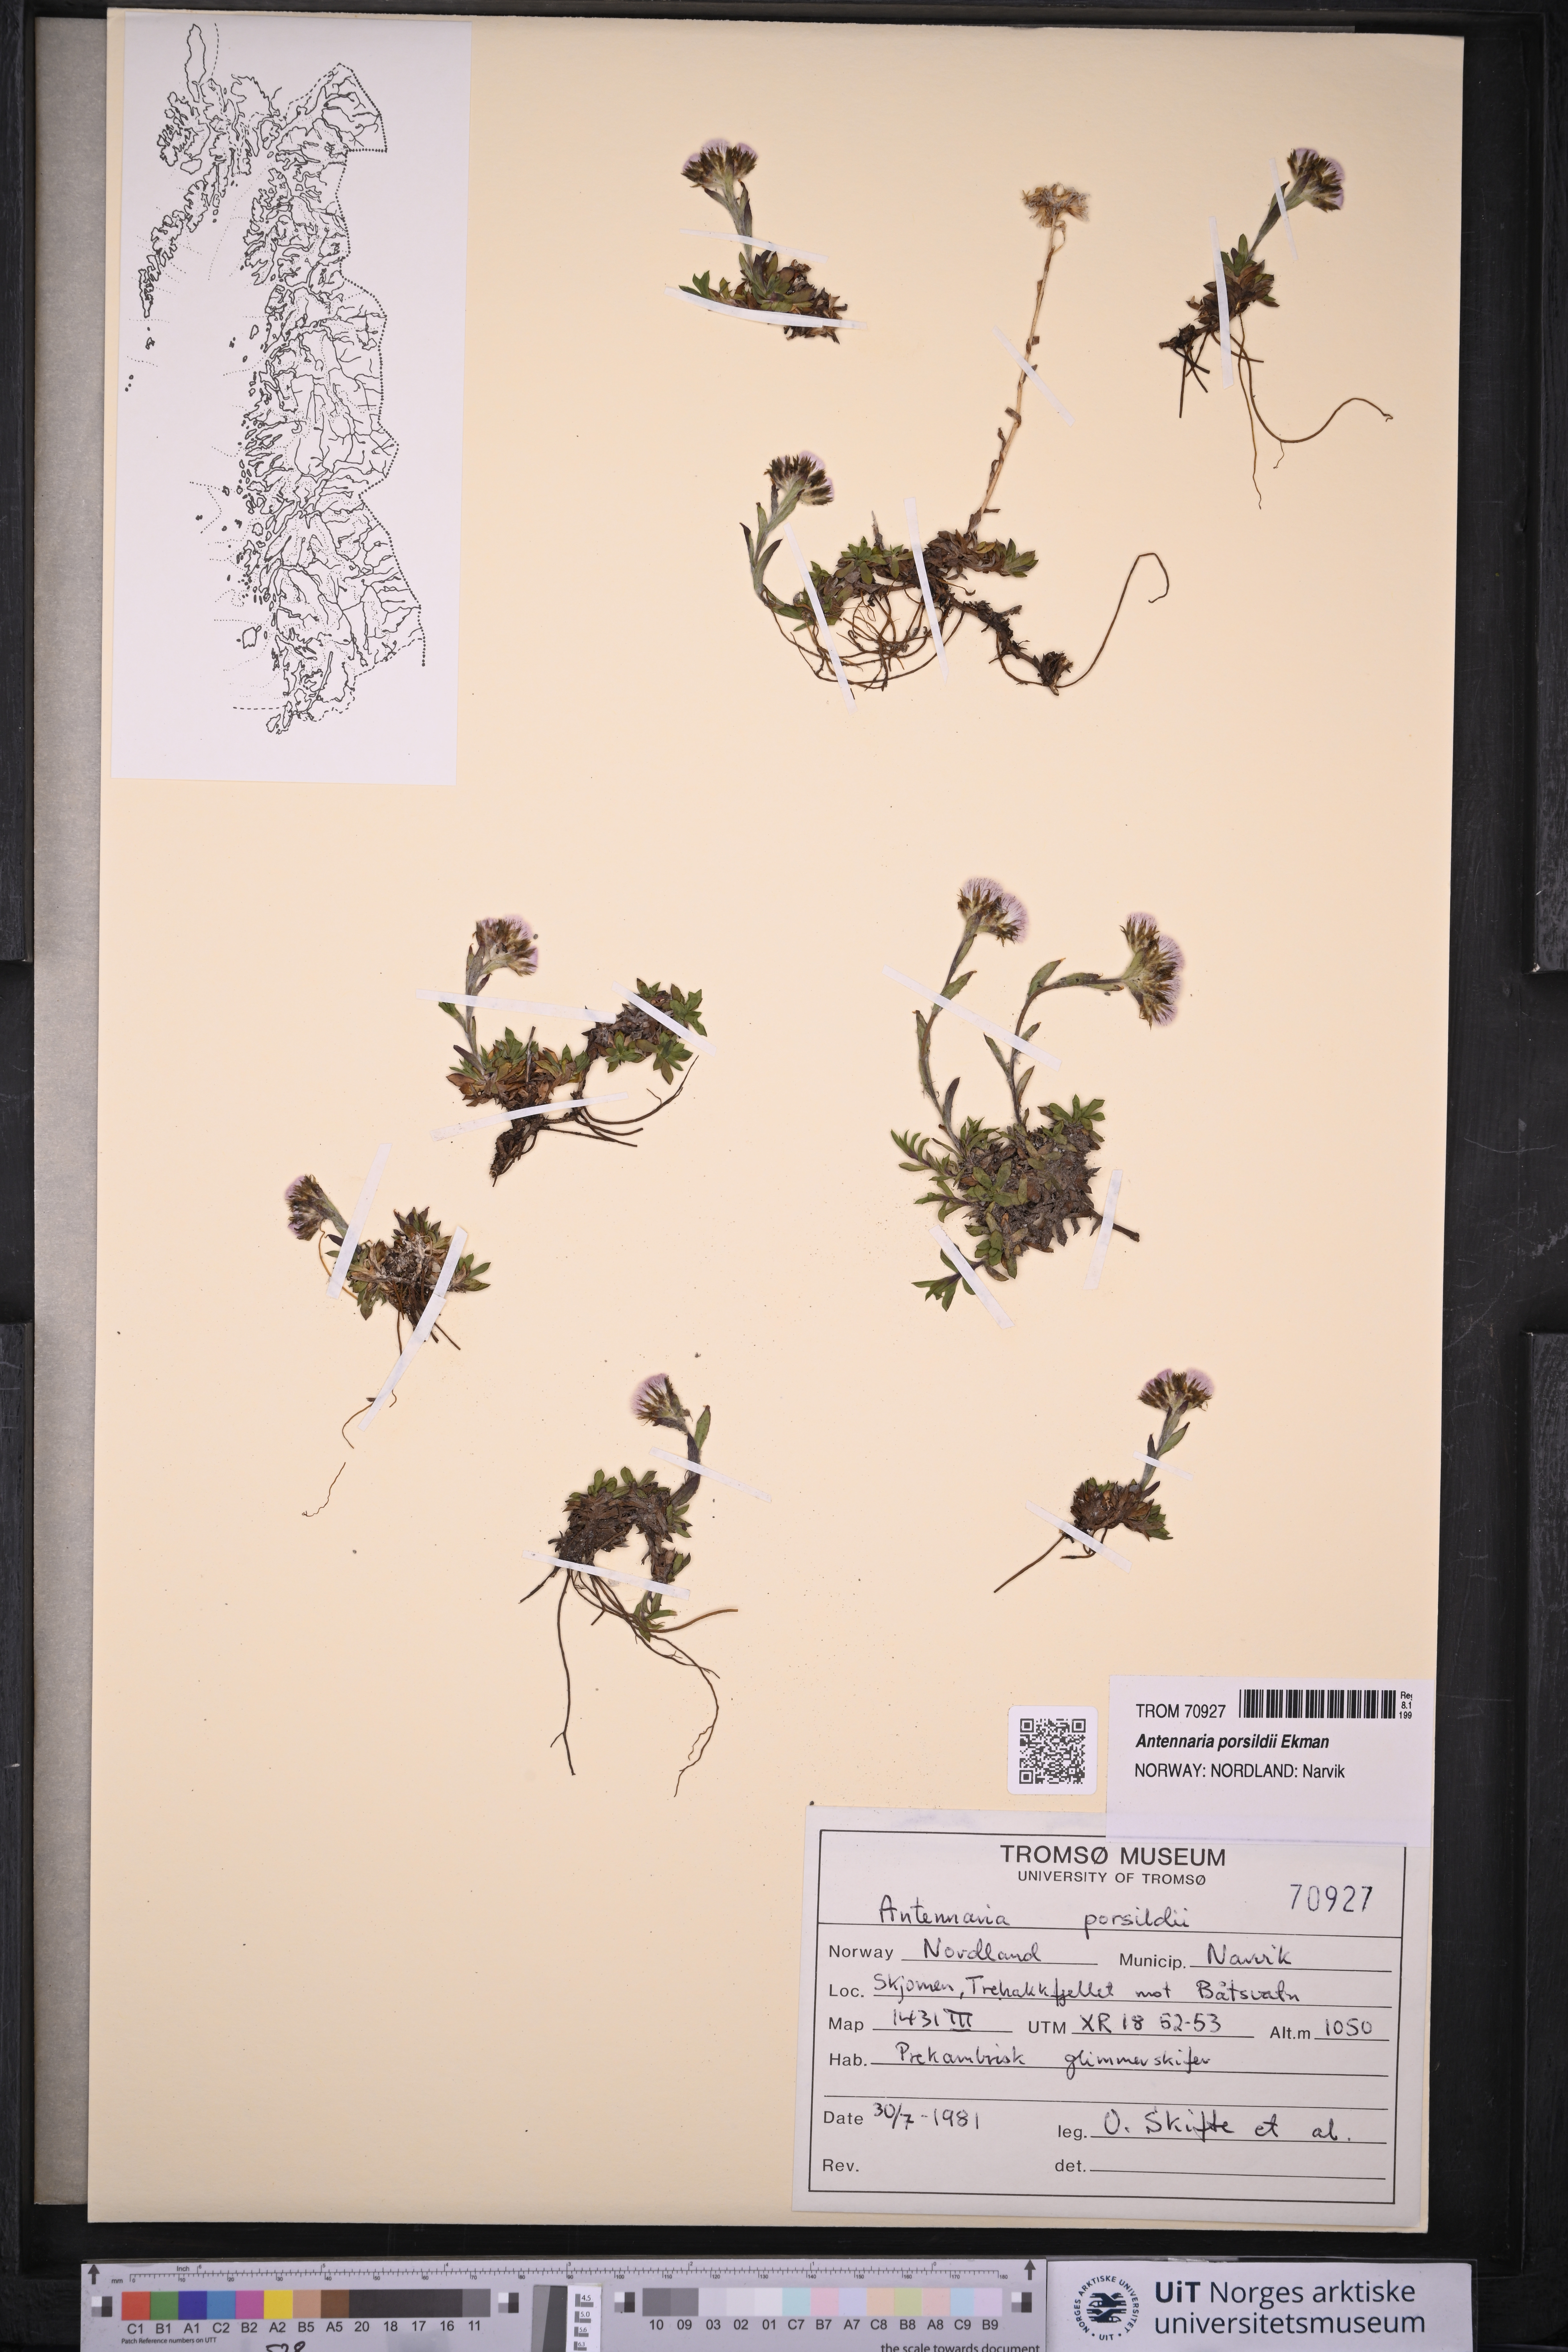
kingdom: Plantae
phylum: Tracheophyta
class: Magnoliopsida
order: Asterales
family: Asteraceae
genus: Antennaria
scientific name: Antennaria porsildii
